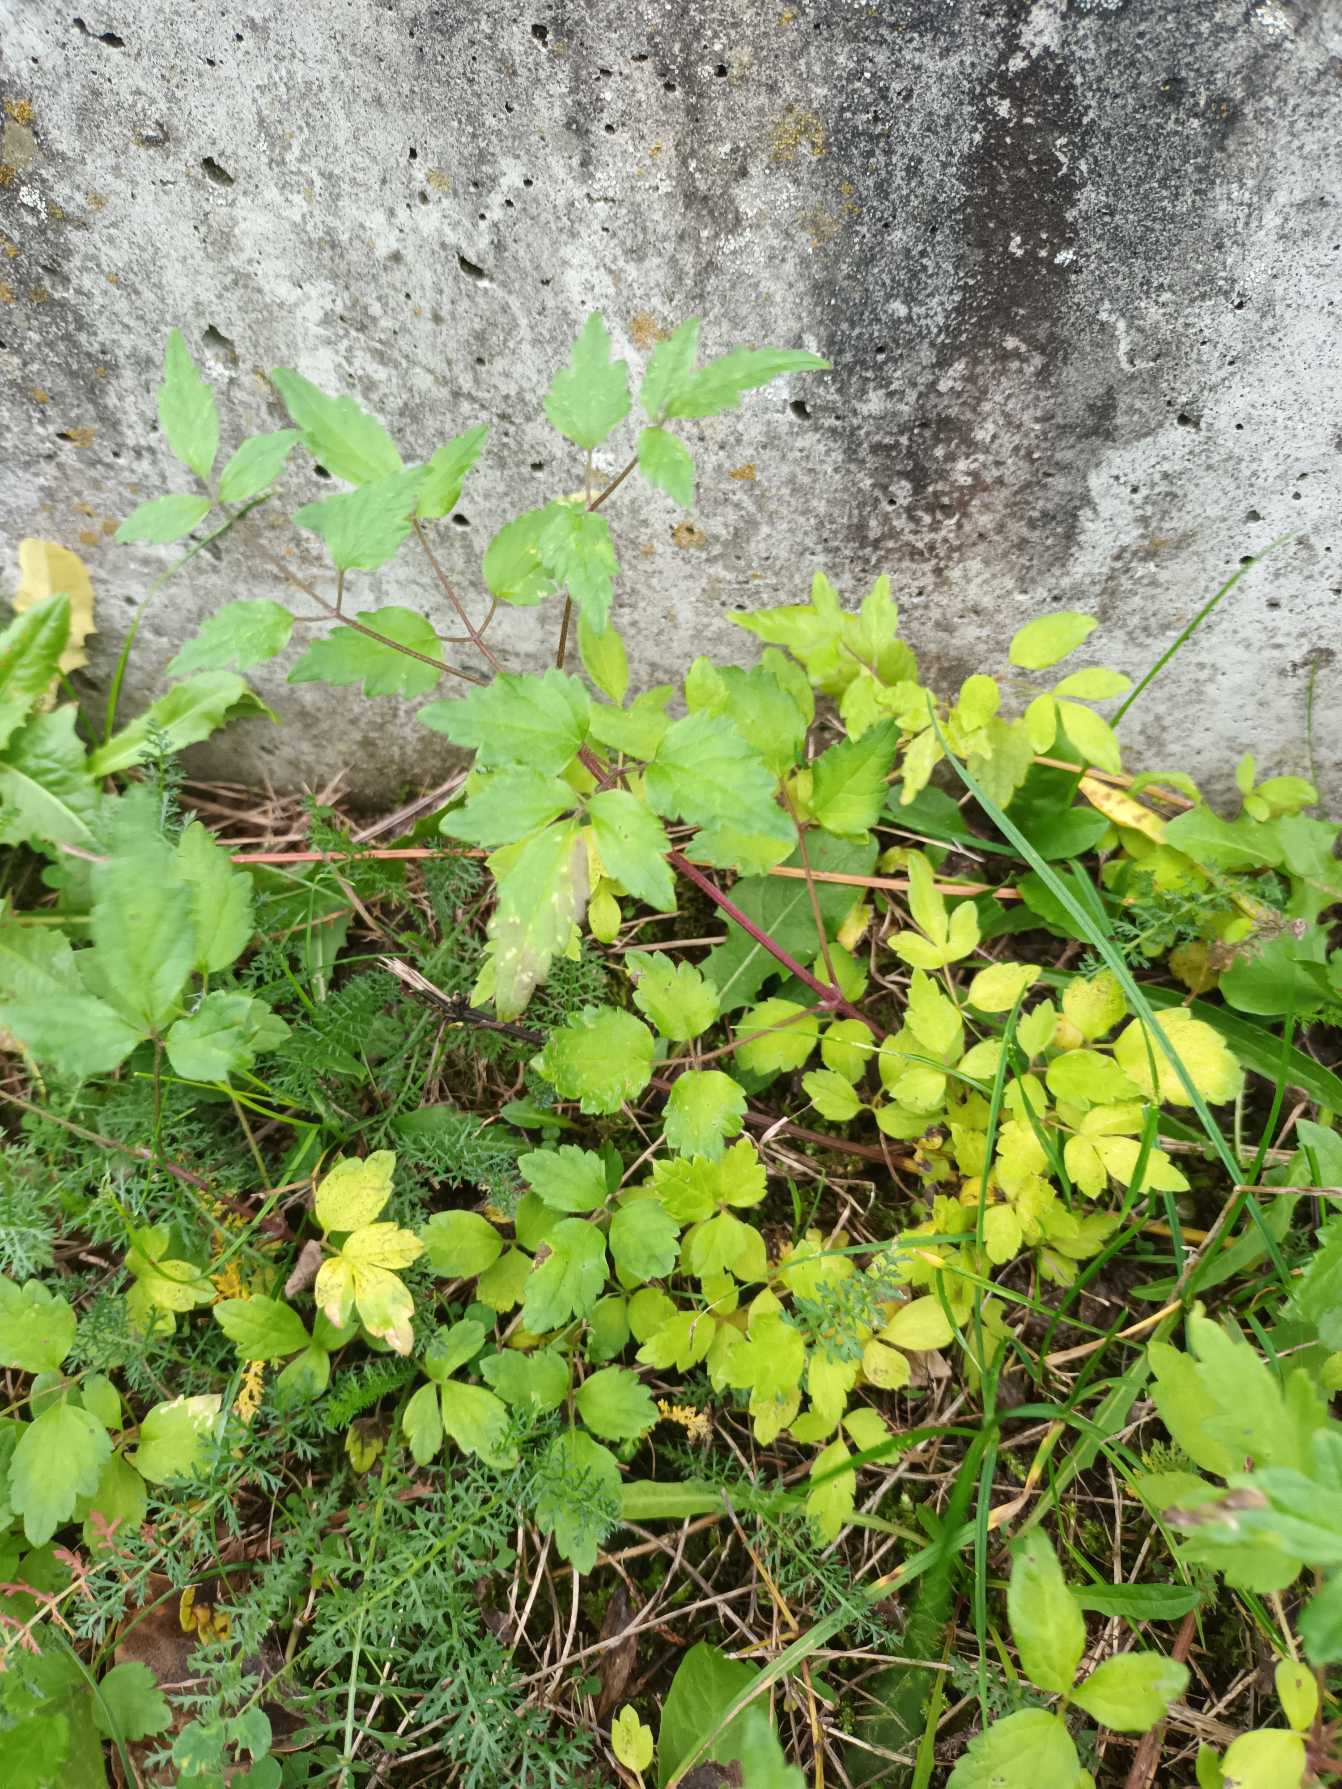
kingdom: Plantae
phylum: Tracheophyta
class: Magnoliopsida
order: Ranunculales
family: Ranunculaceae
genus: Clematis
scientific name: Clematis vitalba
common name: Skovranke
